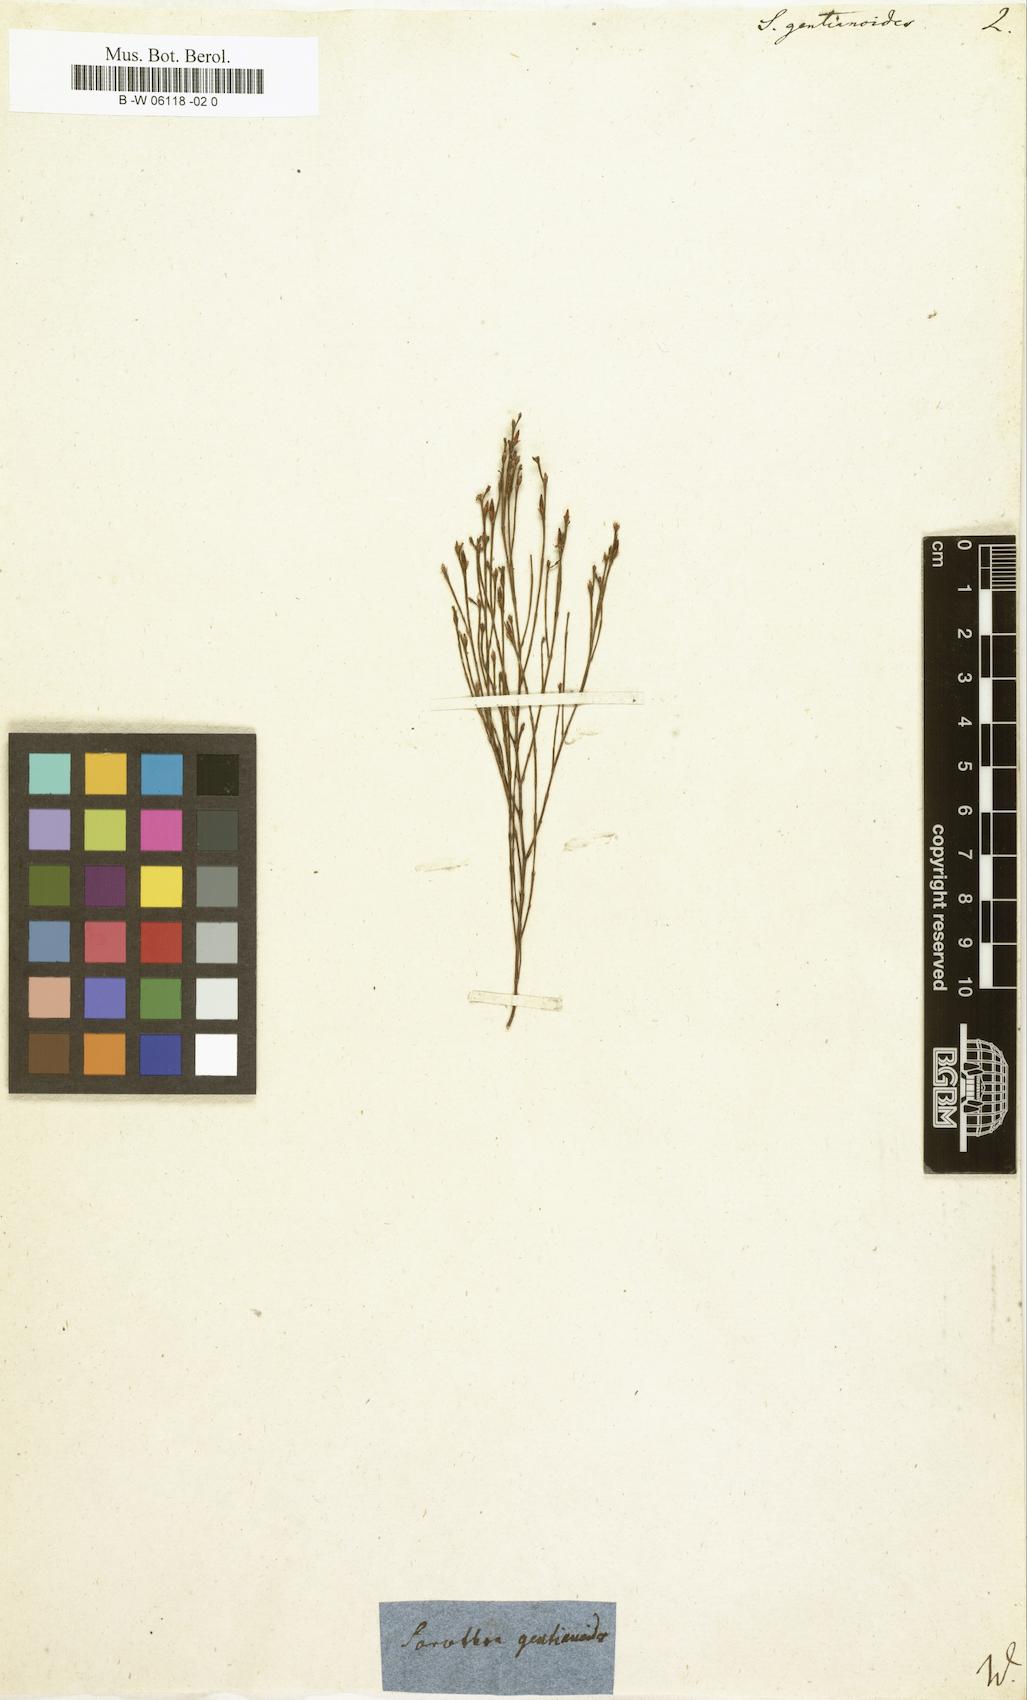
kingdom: Plantae
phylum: Tracheophyta
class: Magnoliopsida
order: Malpighiales
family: Hypericaceae
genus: Hypericum
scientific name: Hypericum gentianoides
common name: Gentian-leaved st. john's-wort
